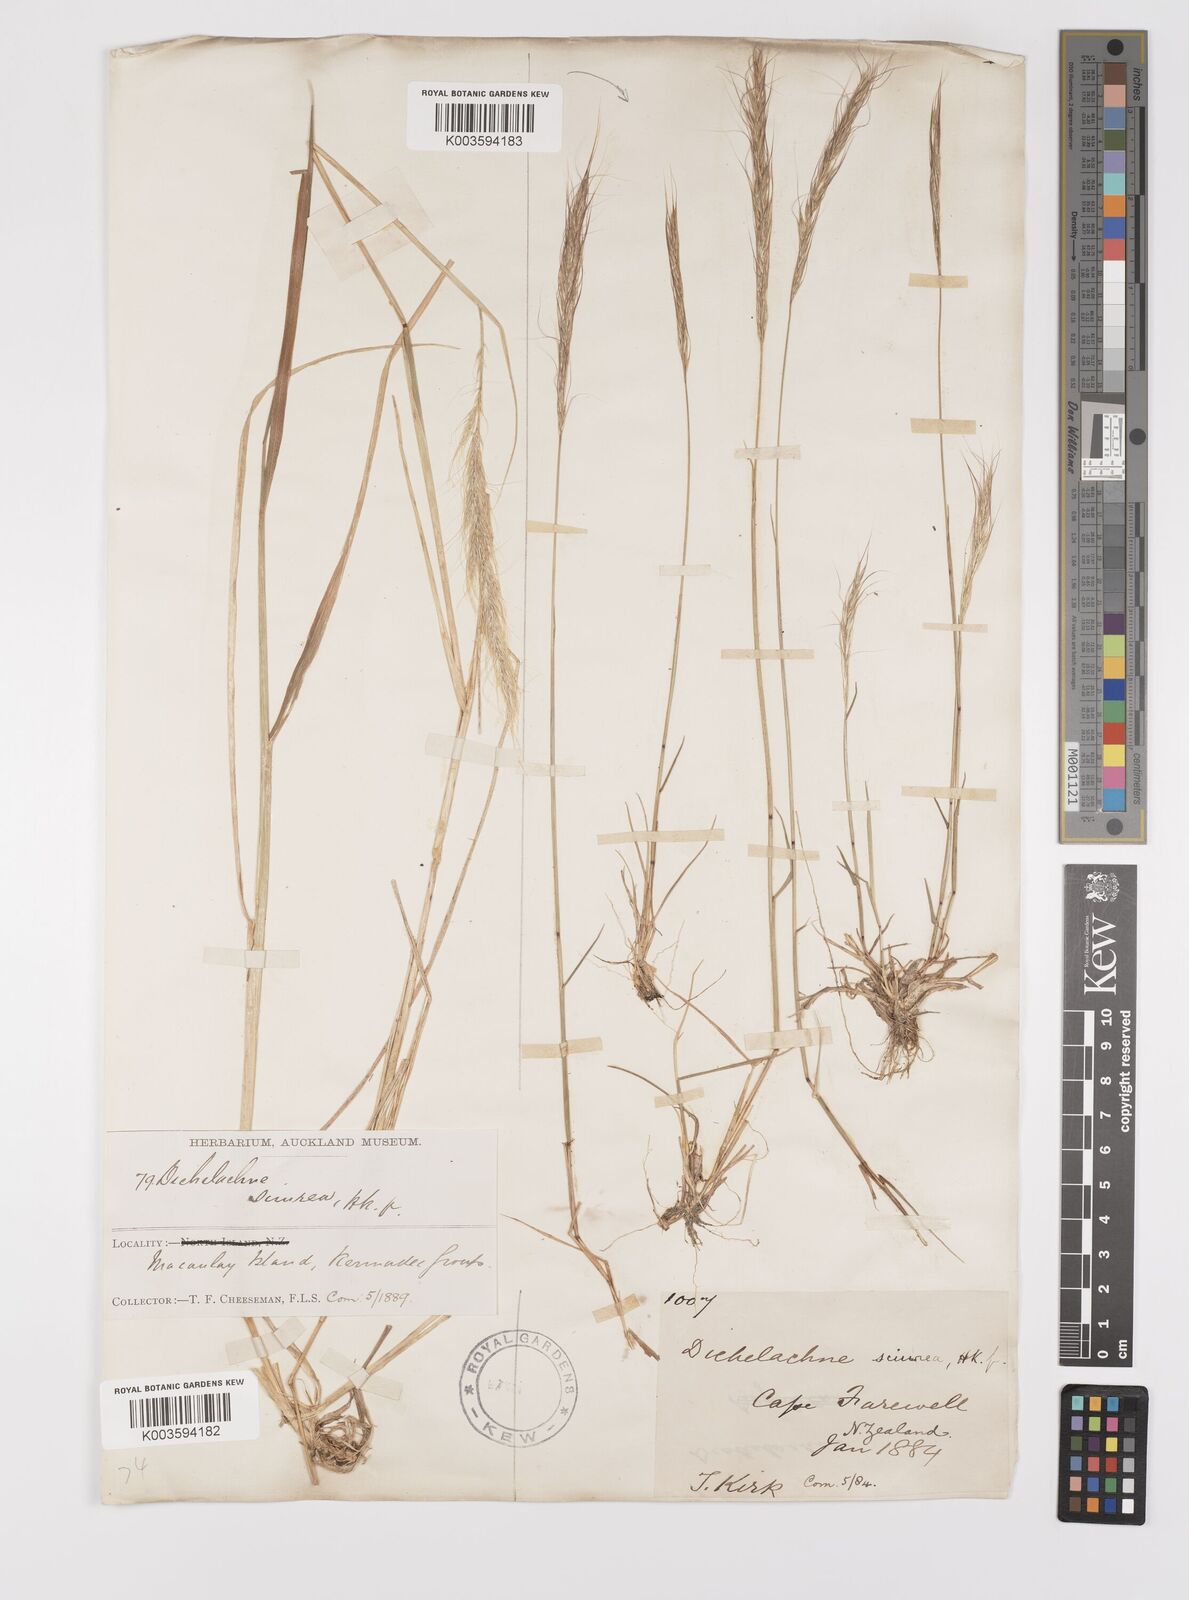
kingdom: Plantae
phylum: Tracheophyta
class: Liliopsida
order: Poales
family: Poaceae
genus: Dichelachne
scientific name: Dichelachne micrantha
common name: Plumegrass
